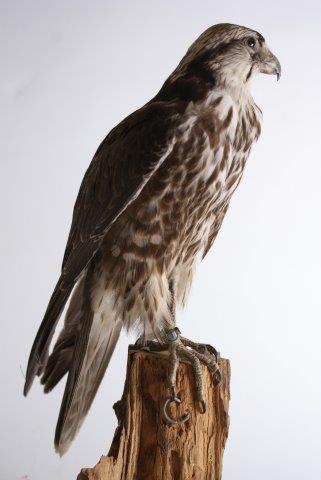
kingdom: Animalia
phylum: Chordata
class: Aves
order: Falconiformes
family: Falconidae
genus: Falco
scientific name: Falco rusticolus
